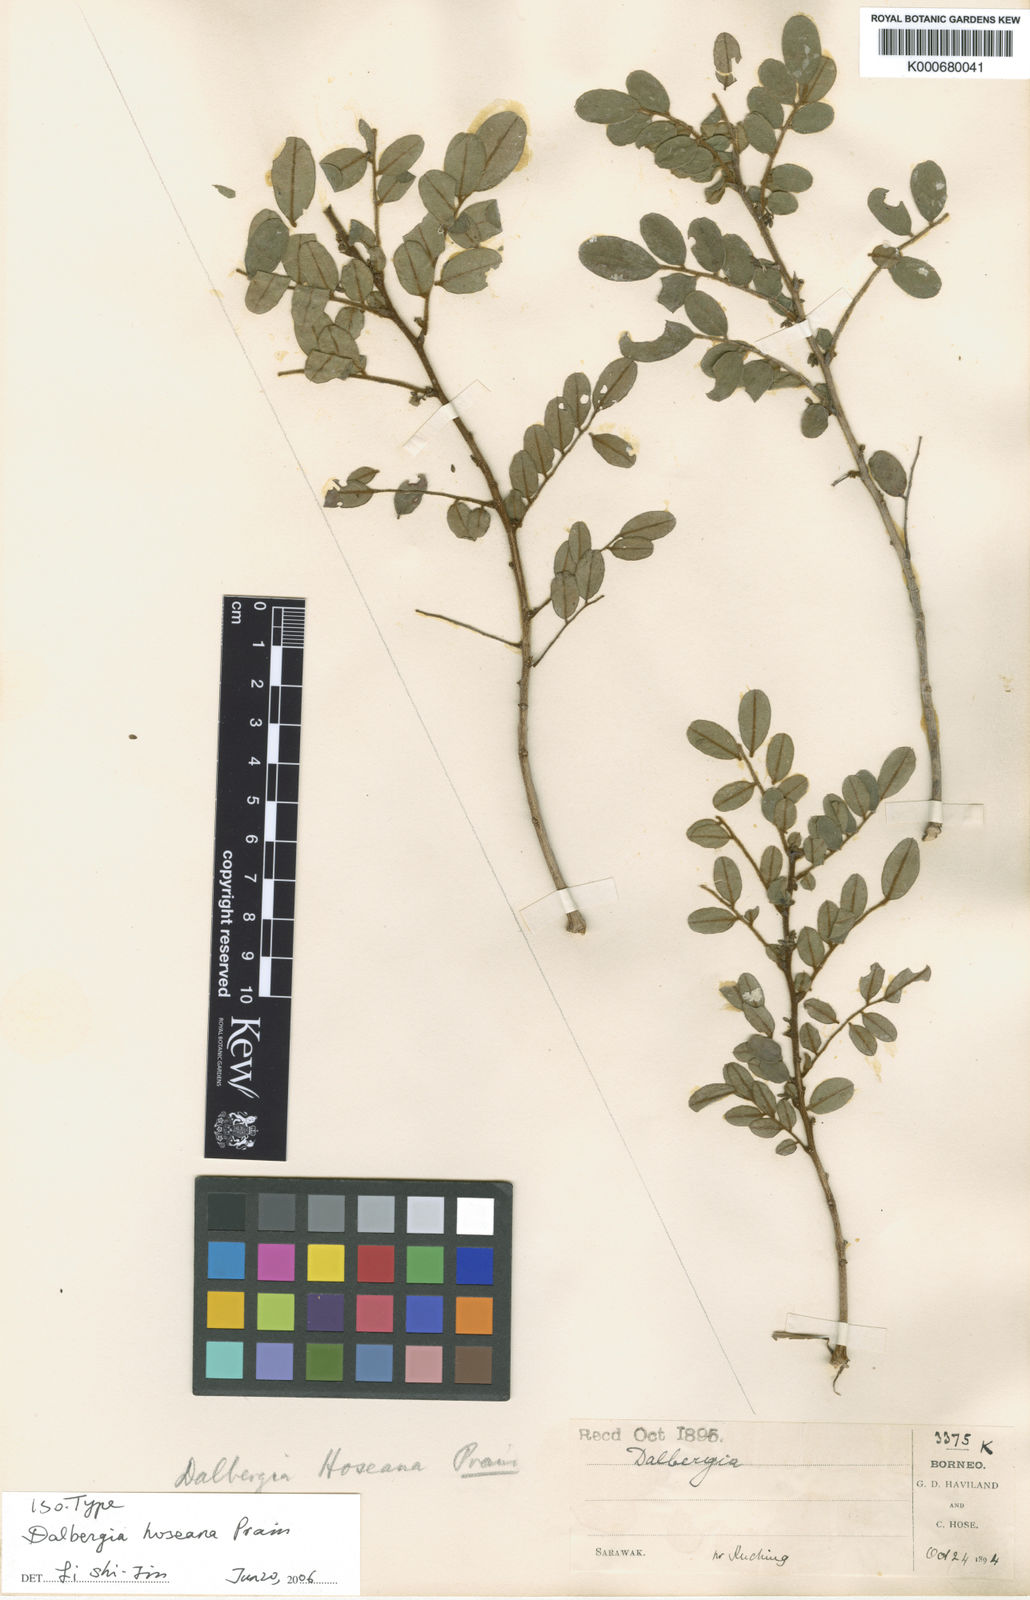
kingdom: Plantae
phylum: Tracheophyta
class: Magnoliopsida
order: Fabales
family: Fabaceae
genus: Dalbergia
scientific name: Dalbergia velutina
